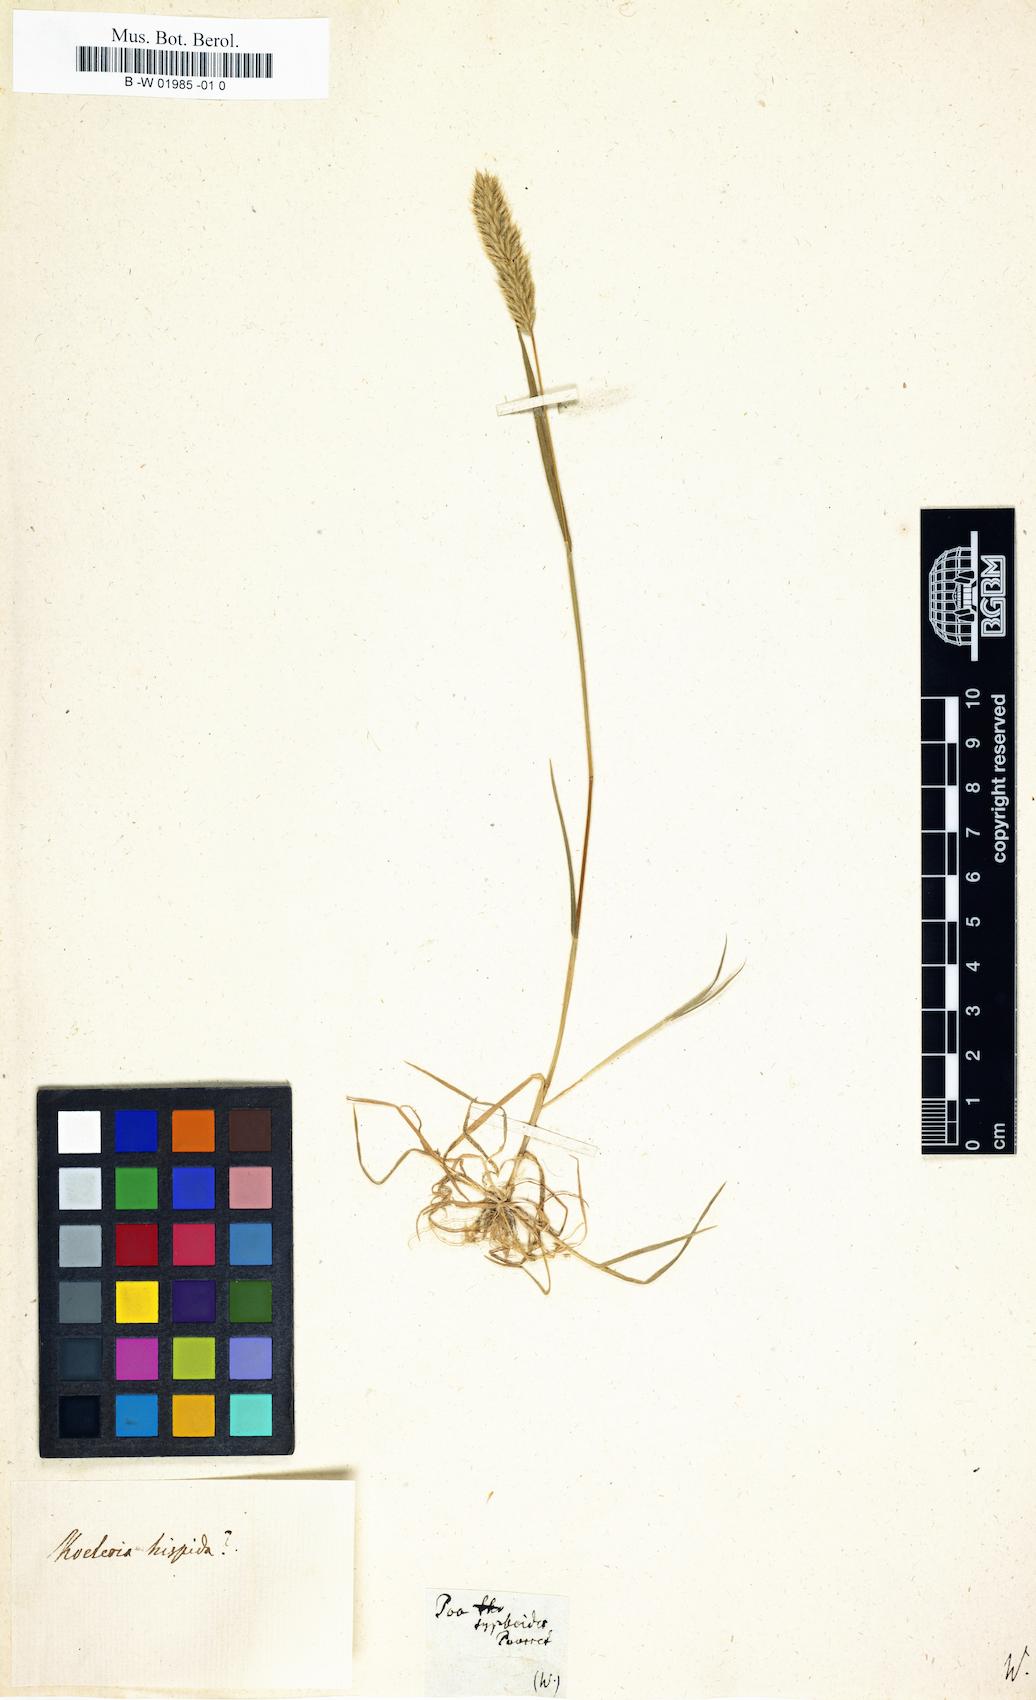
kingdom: Plantae
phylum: Tracheophyta
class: Liliopsida
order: Poales
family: Poaceae
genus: Rostraria
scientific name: Rostraria cristata
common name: Mediterranean hair-grass
